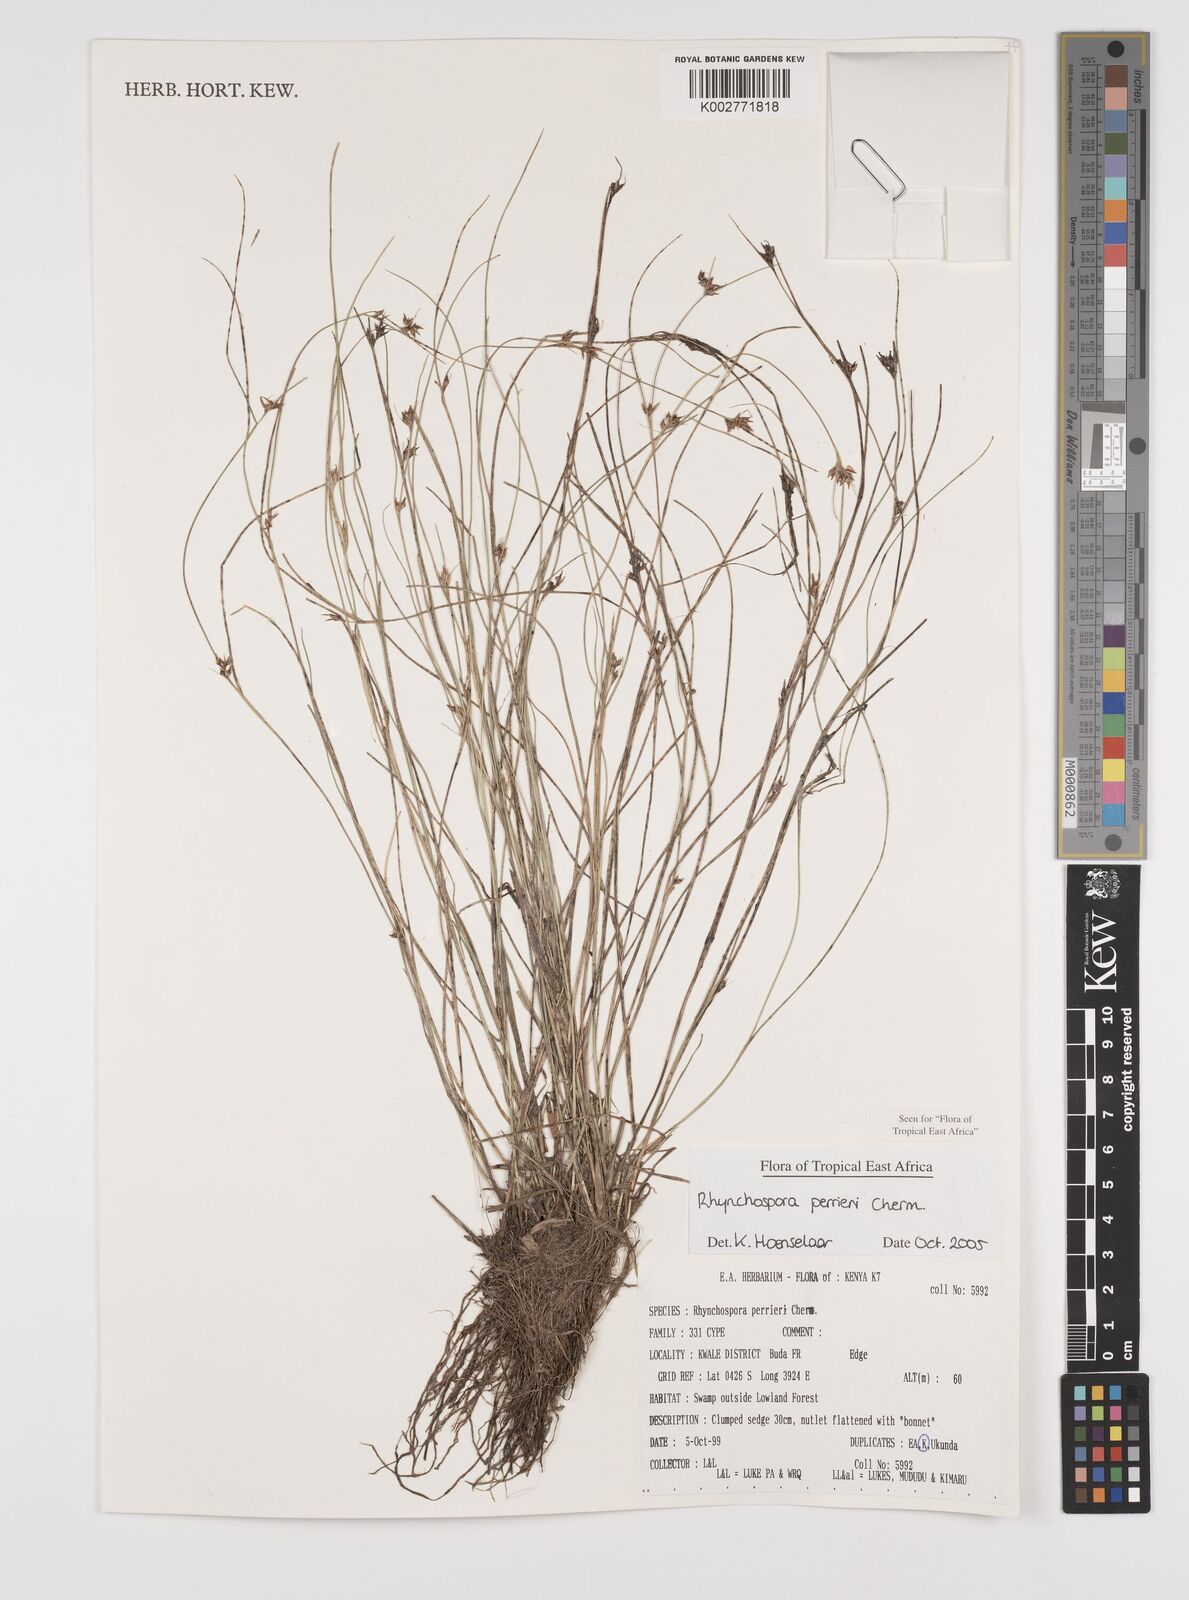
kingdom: Plantae
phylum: Tracheophyta
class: Liliopsida
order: Poales
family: Cyperaceae
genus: Rhynchospora
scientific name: Rhynchospora perrieri
